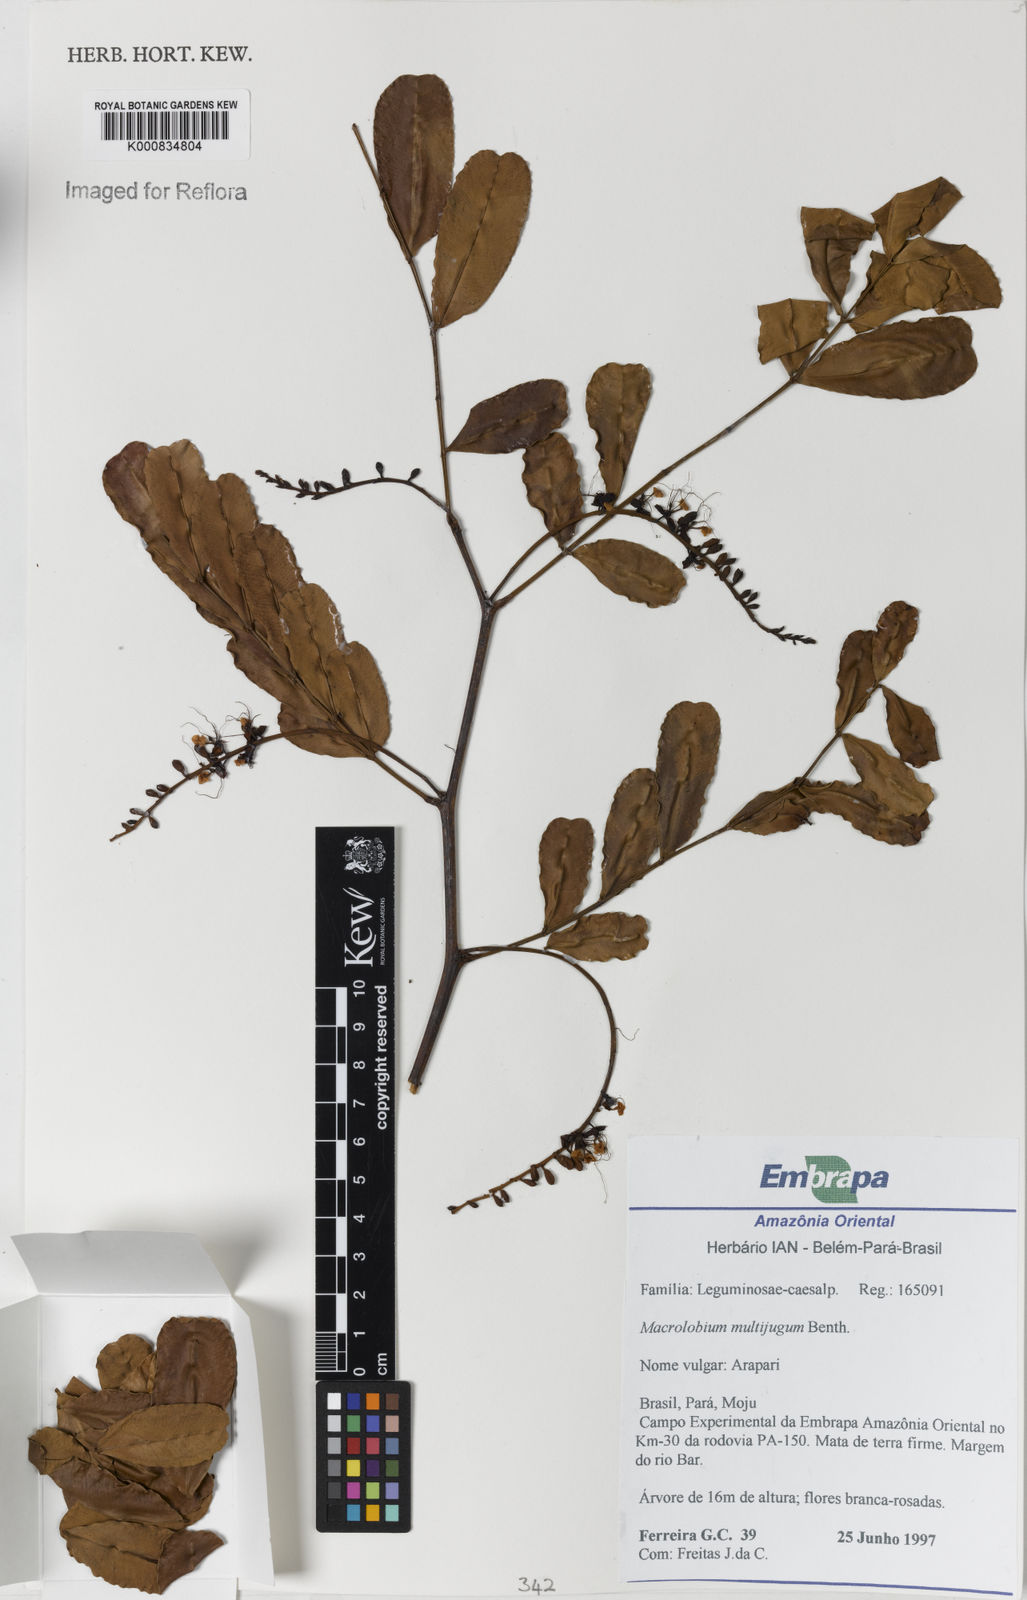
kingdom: Plantae
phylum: Tracheophyta
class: Magnoliopsida
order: Fabales
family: Fabaceae
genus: Macrolobium
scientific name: Macrolobium multijugum
